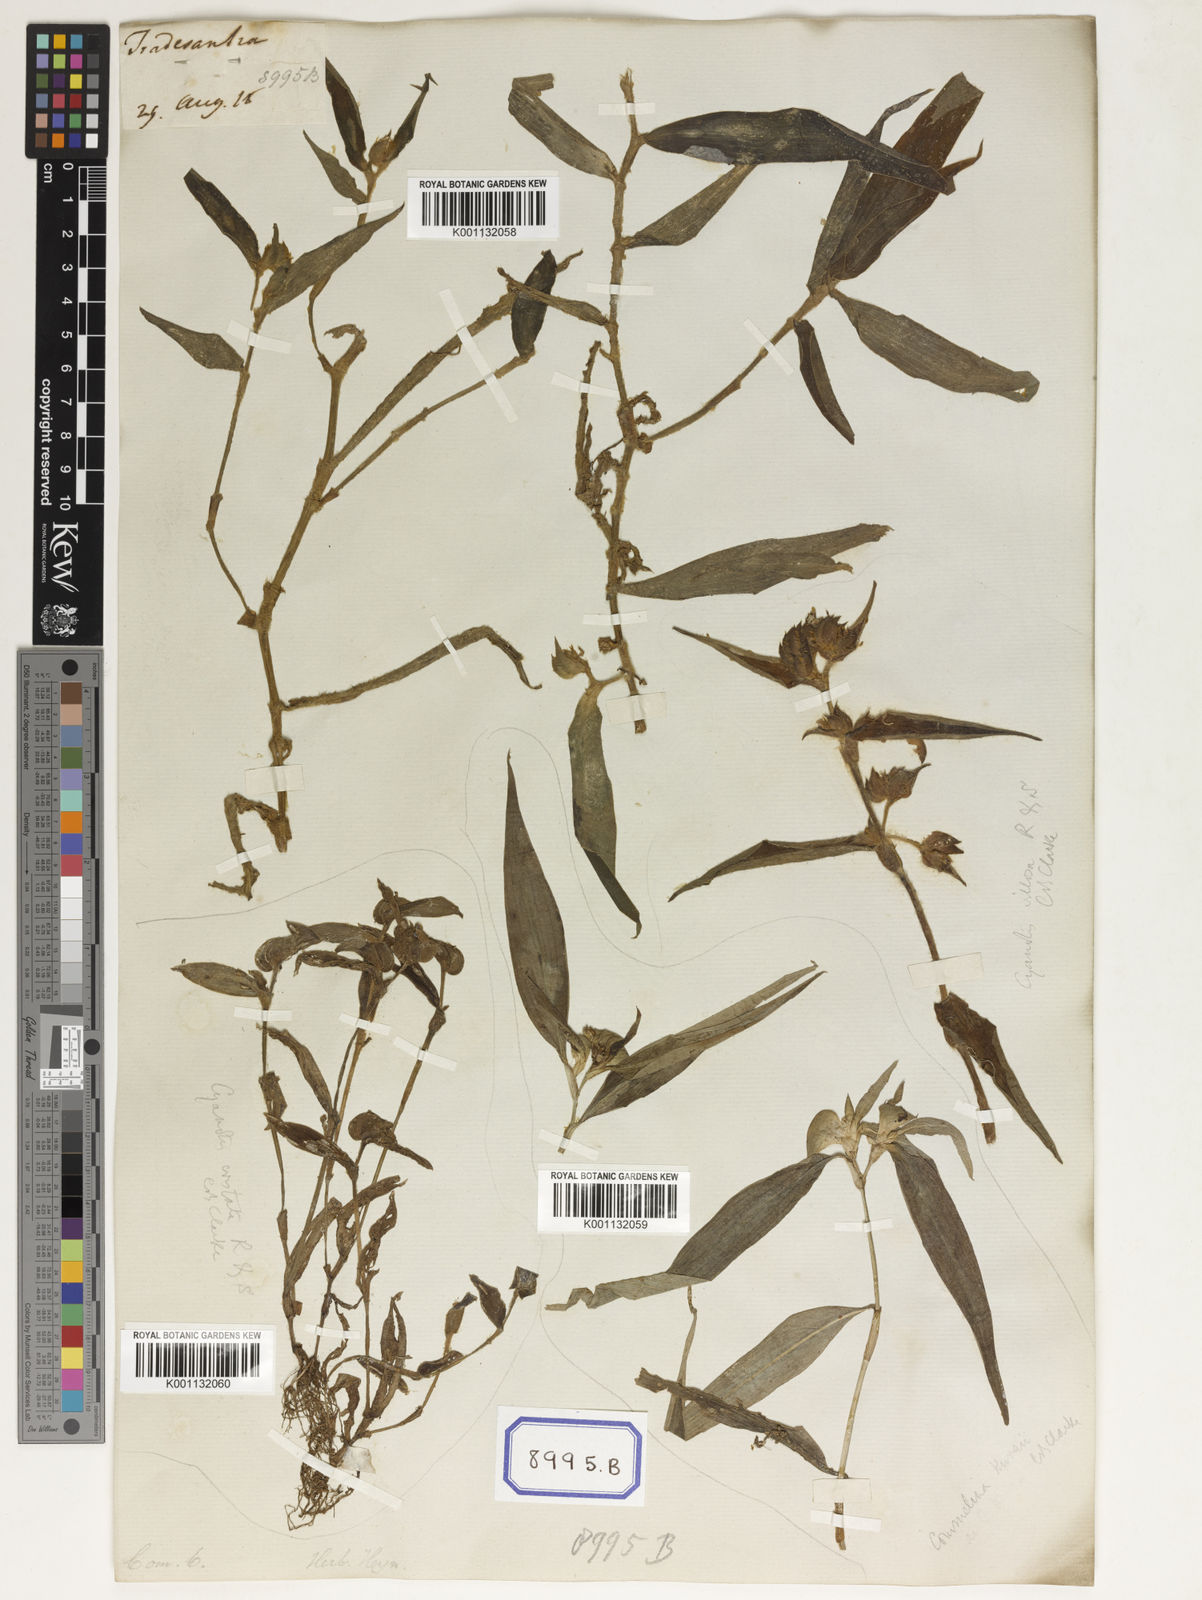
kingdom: Plantae
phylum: Tracheophyta
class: Liliopsida
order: Commelinales
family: Commelinaceae
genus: Cyanotis
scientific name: Cyanotis villosa
